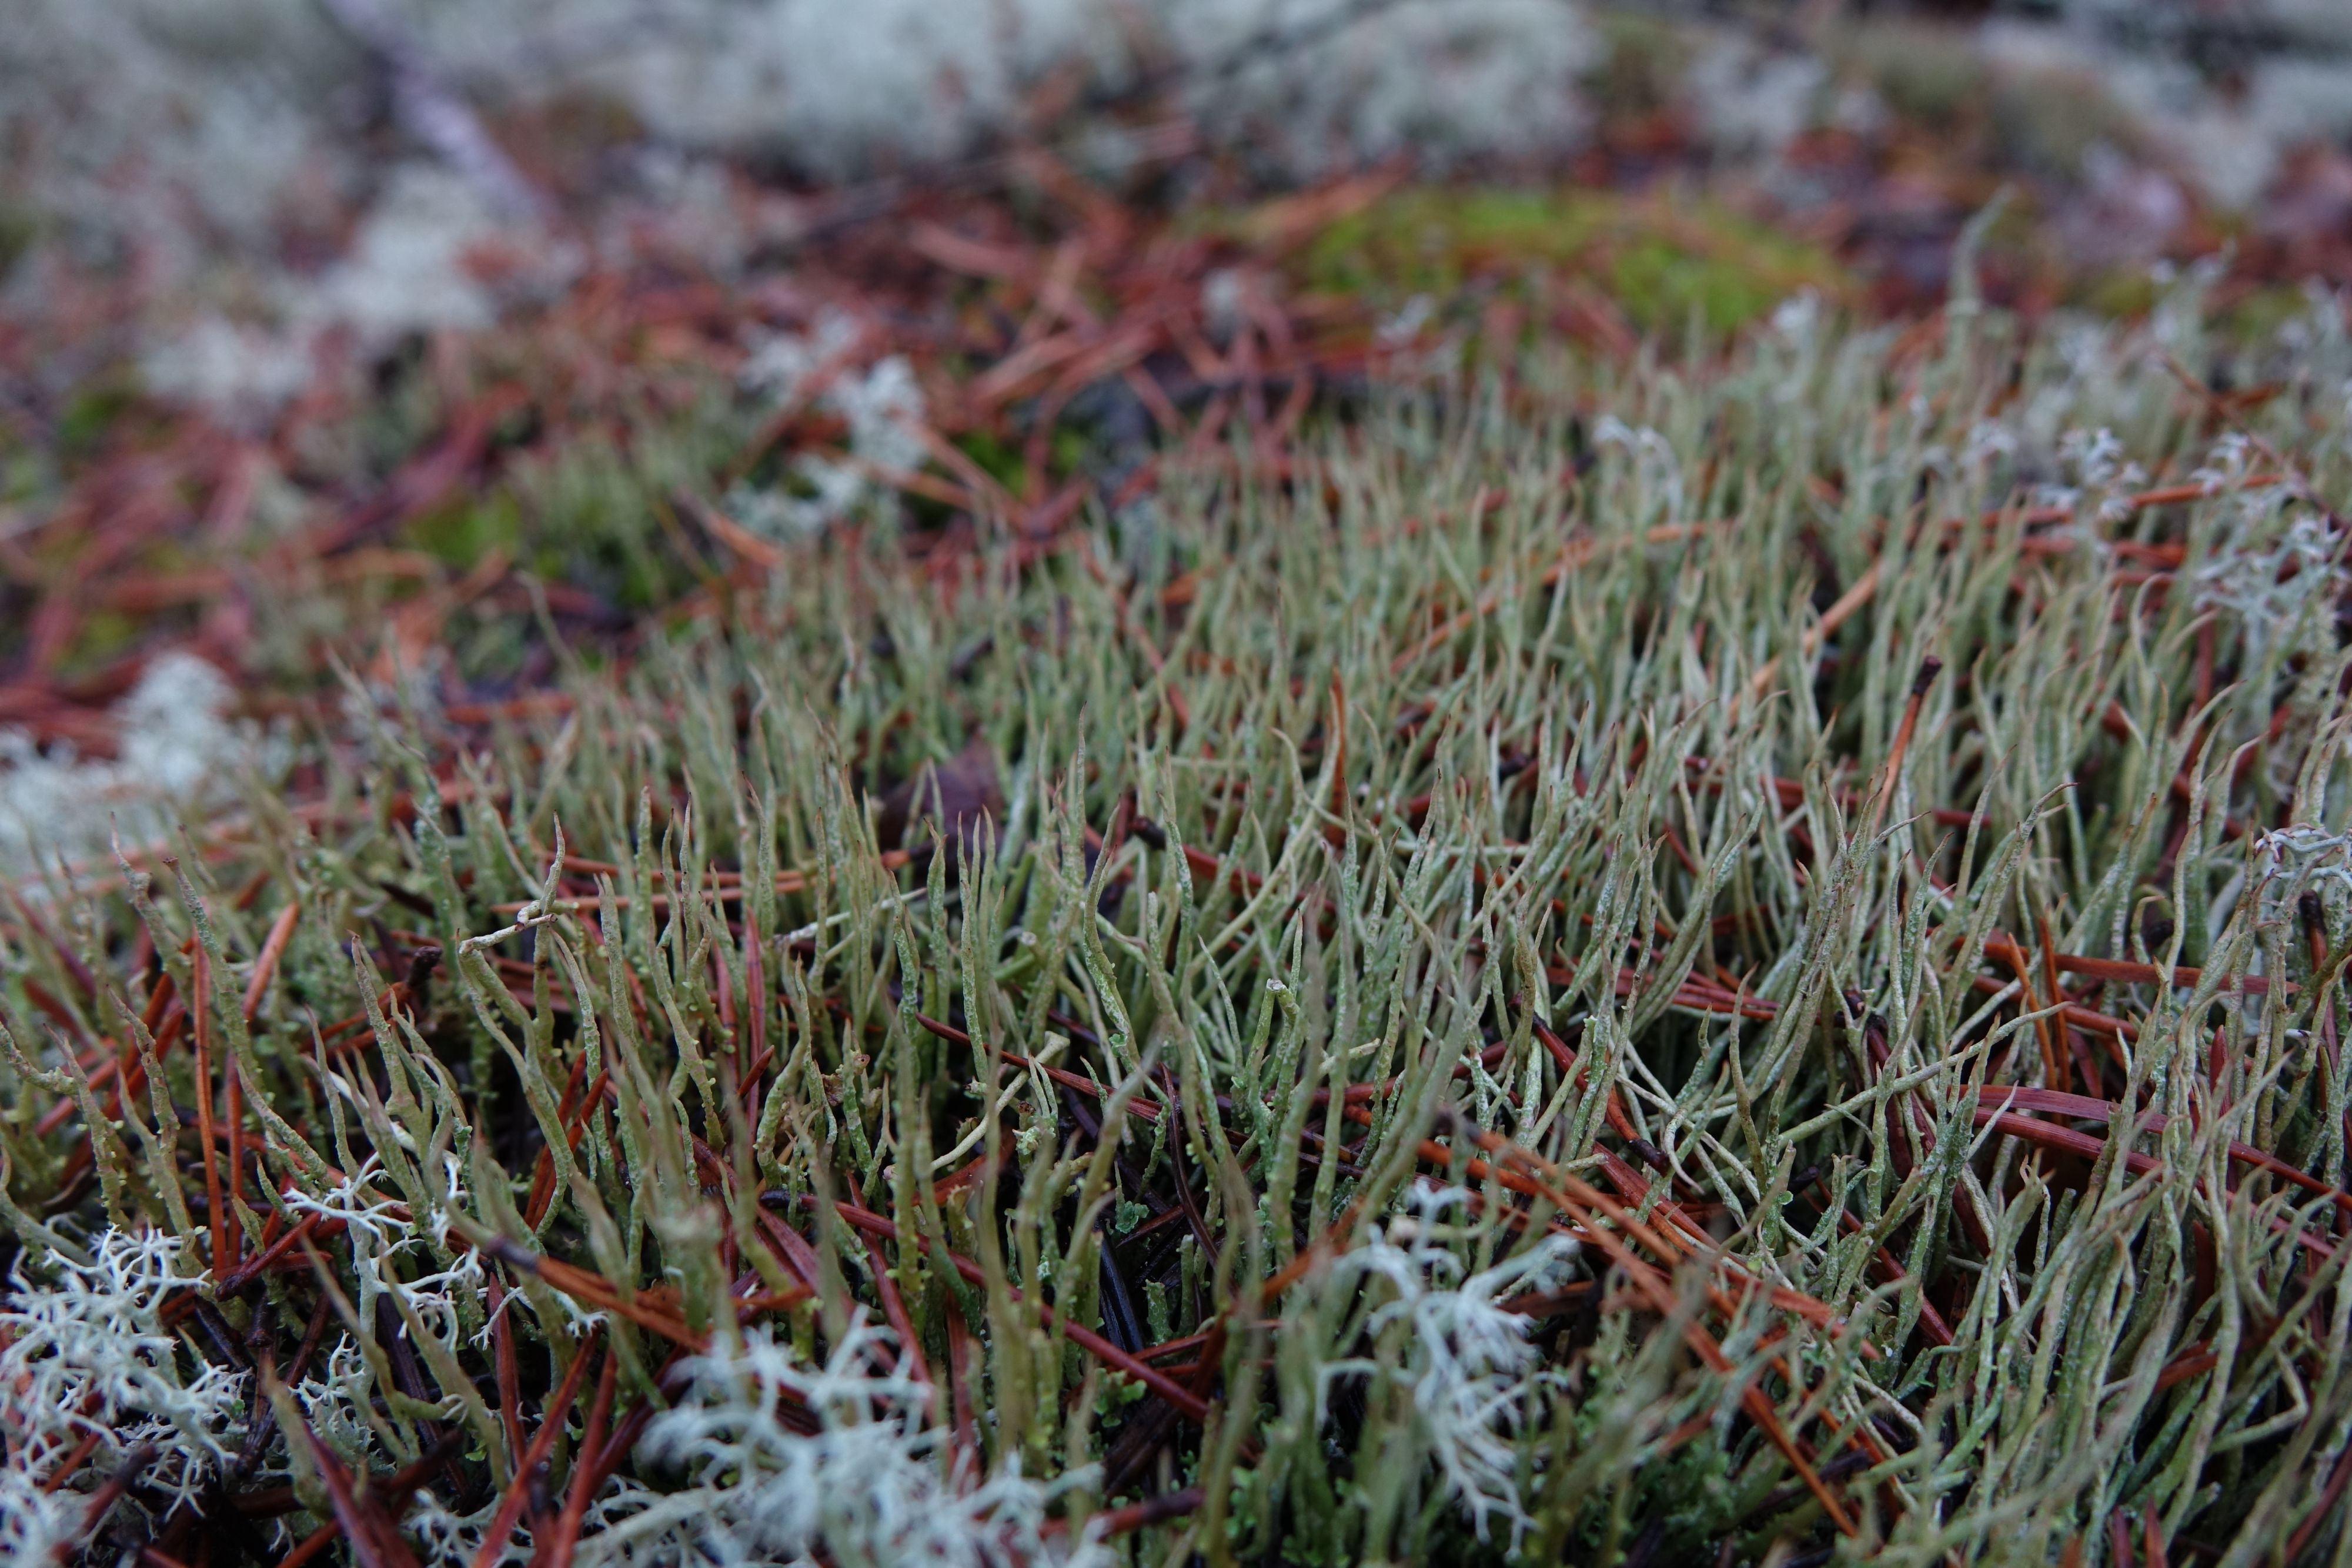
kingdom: Fungi
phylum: Ascomycota
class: Lecanoromycetes
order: Lecanorales
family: Cladoniaceae
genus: Cladonia
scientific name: Cladonia cornuta
